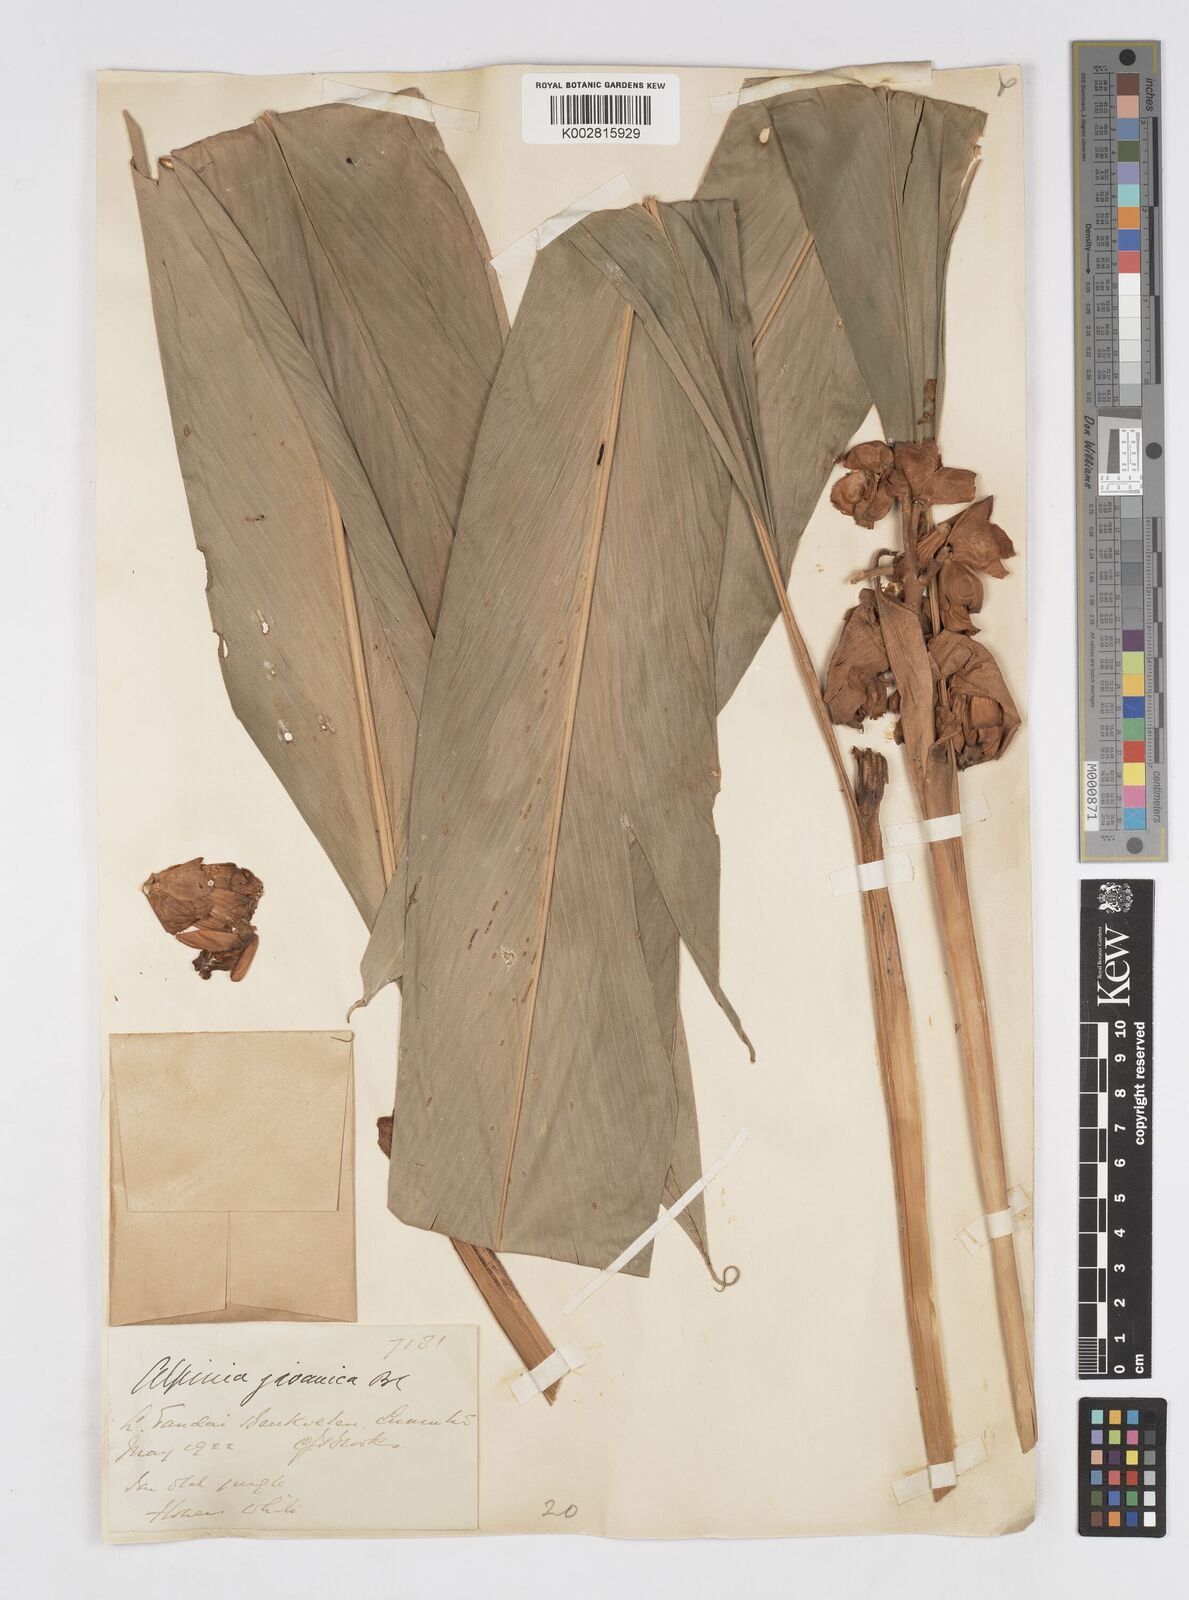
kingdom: Plantae
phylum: Tracheophyta
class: Liliopsida
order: Zingiberales
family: Zingiberaceae
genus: Alpinia
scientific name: Alpinia javanica
